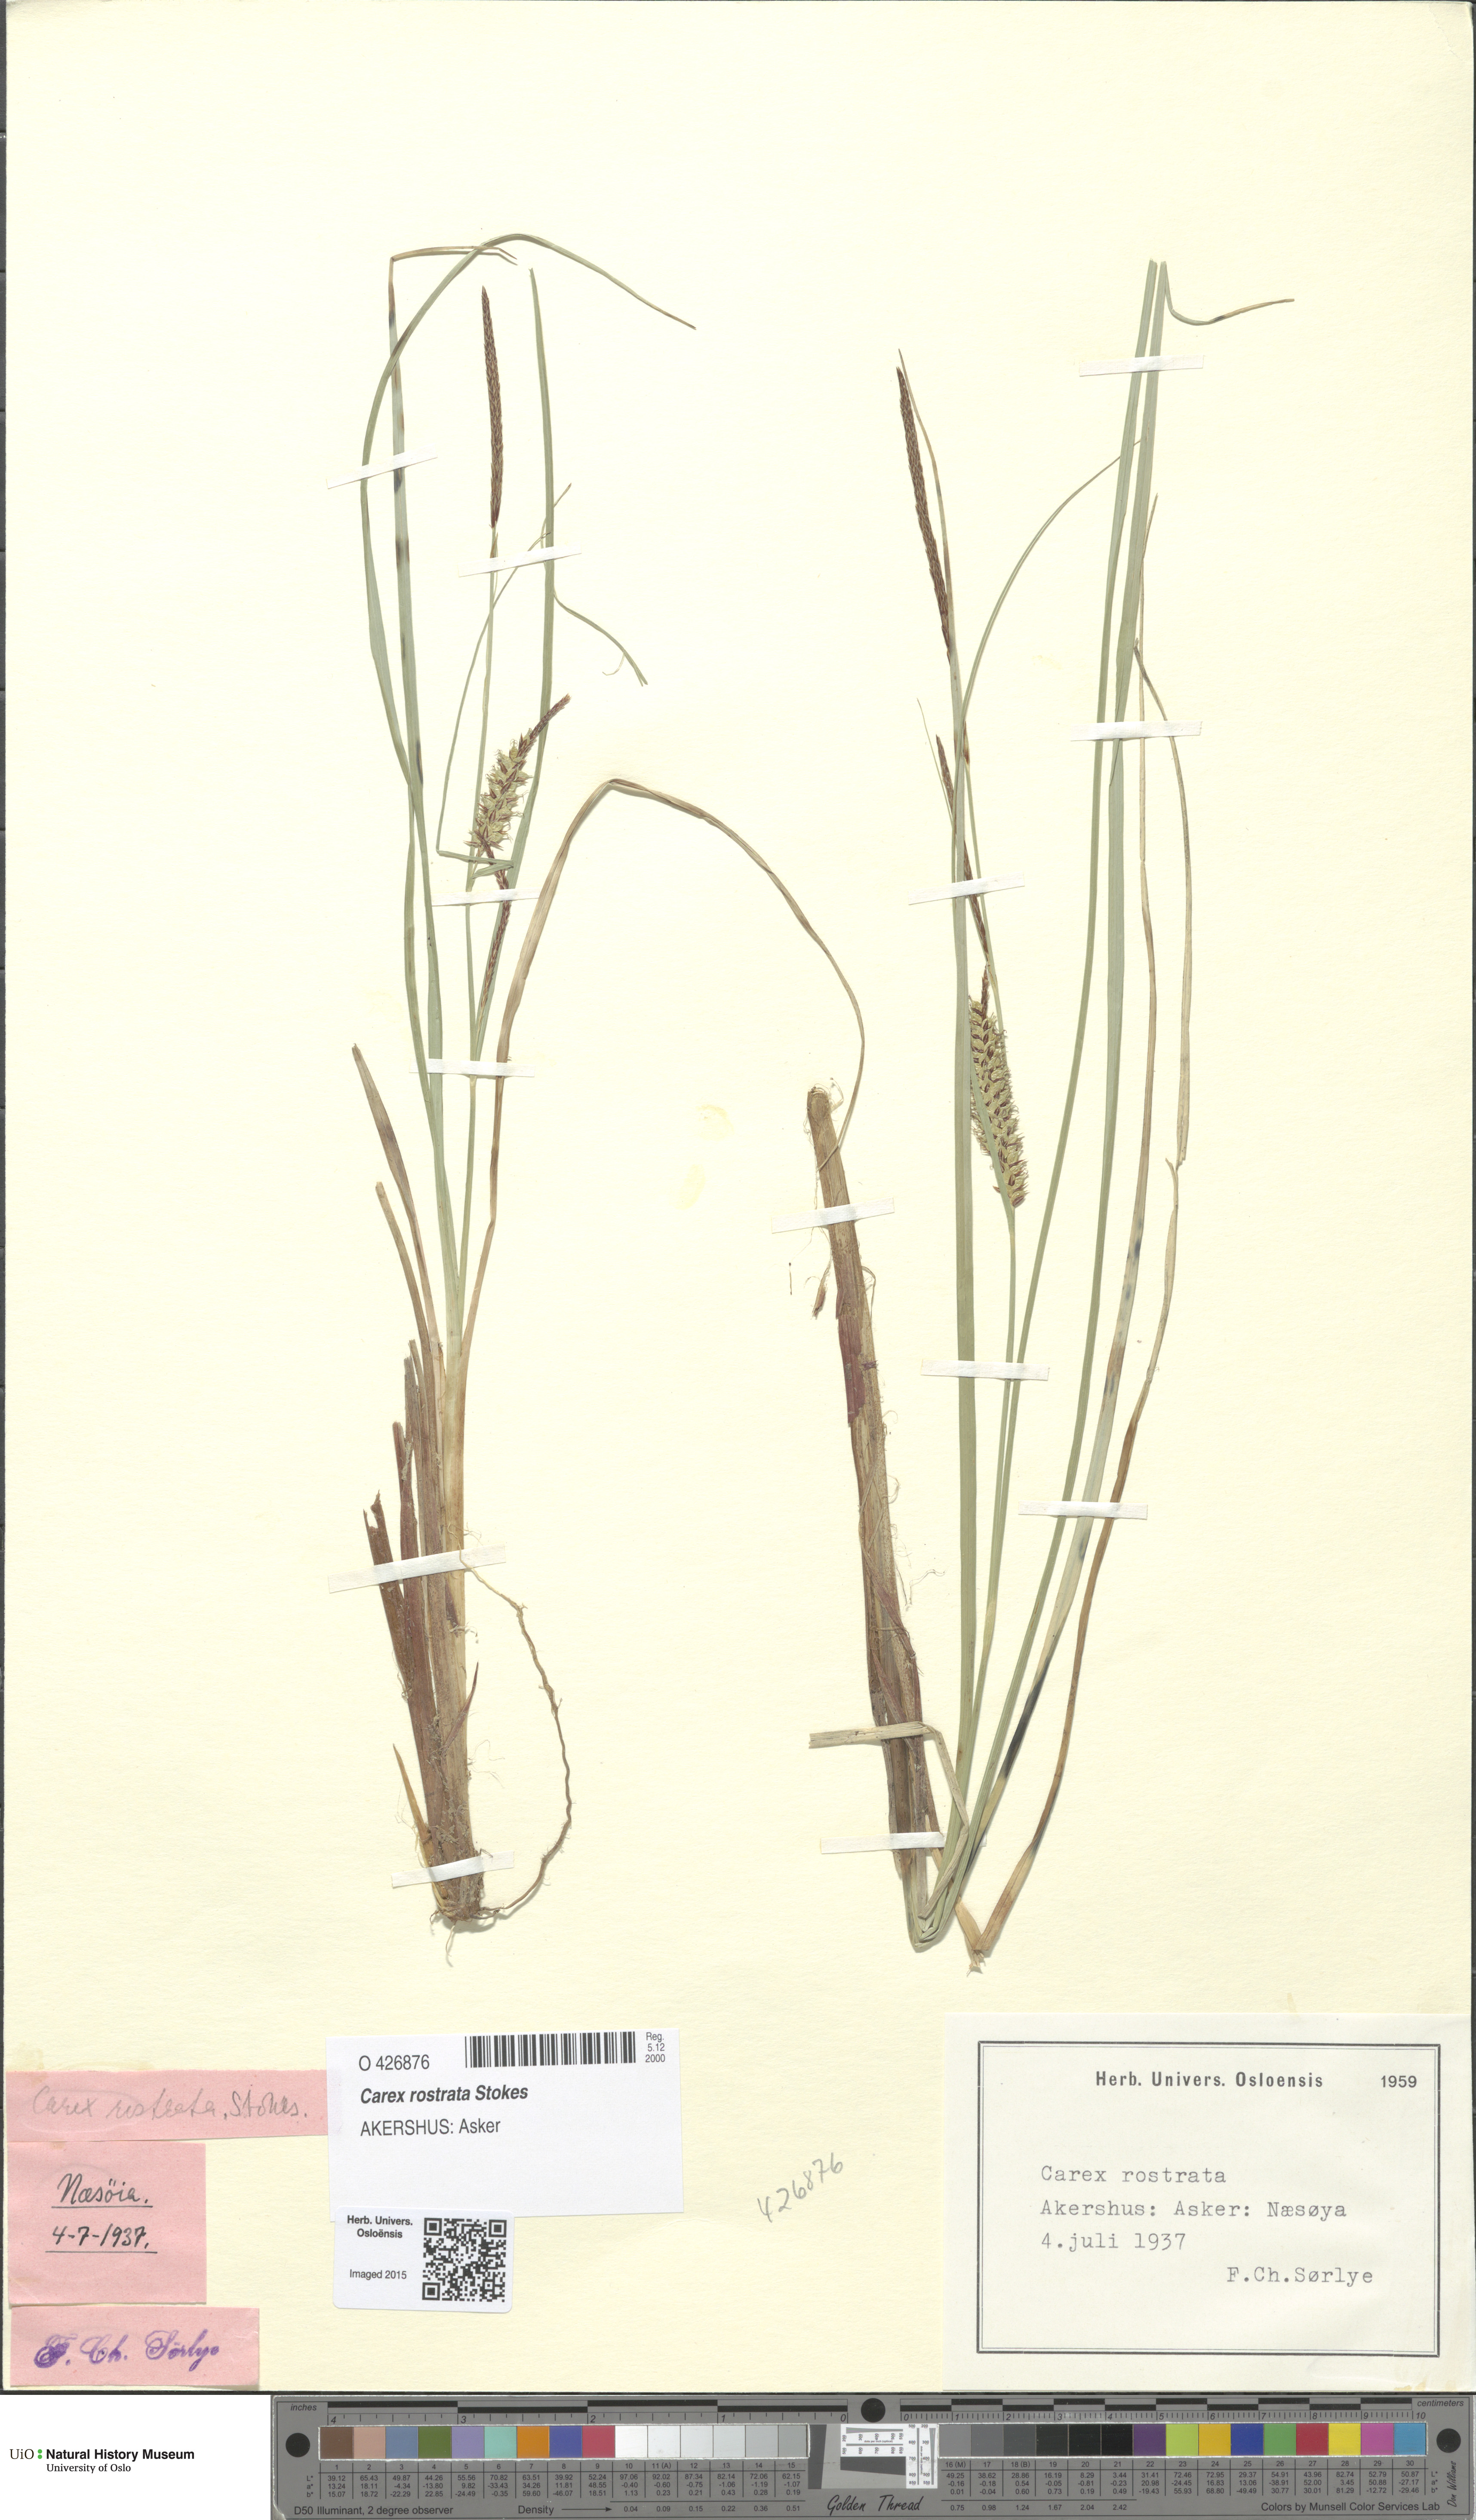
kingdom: Plantae
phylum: Tracheophyta
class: Liliopsida
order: Poales
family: Cyperaceae
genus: Carex
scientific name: Carex rostrata
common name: Bottle sedge
